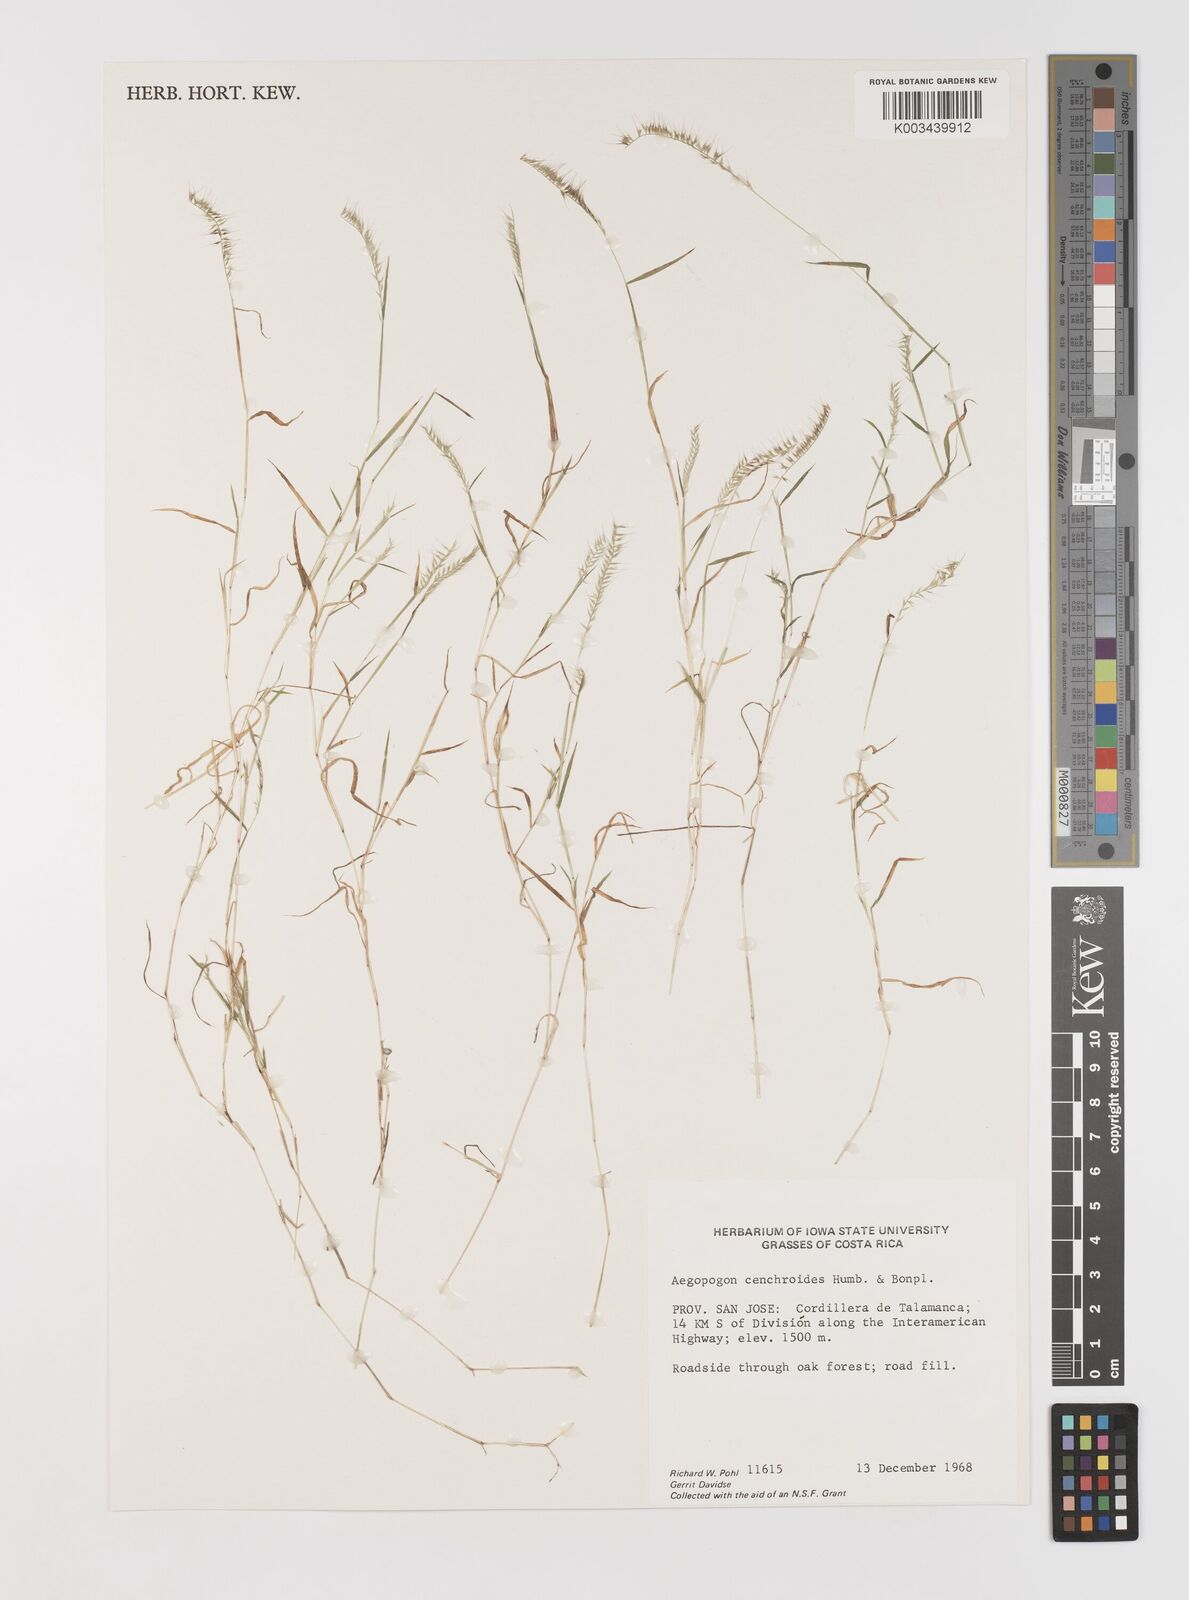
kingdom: Plantae
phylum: Tracheophyta
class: Liliopsida
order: Poales
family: Poaceae
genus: Muhlenbergia
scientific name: Muhlenbergia cenchroides
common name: Relaxgrass
